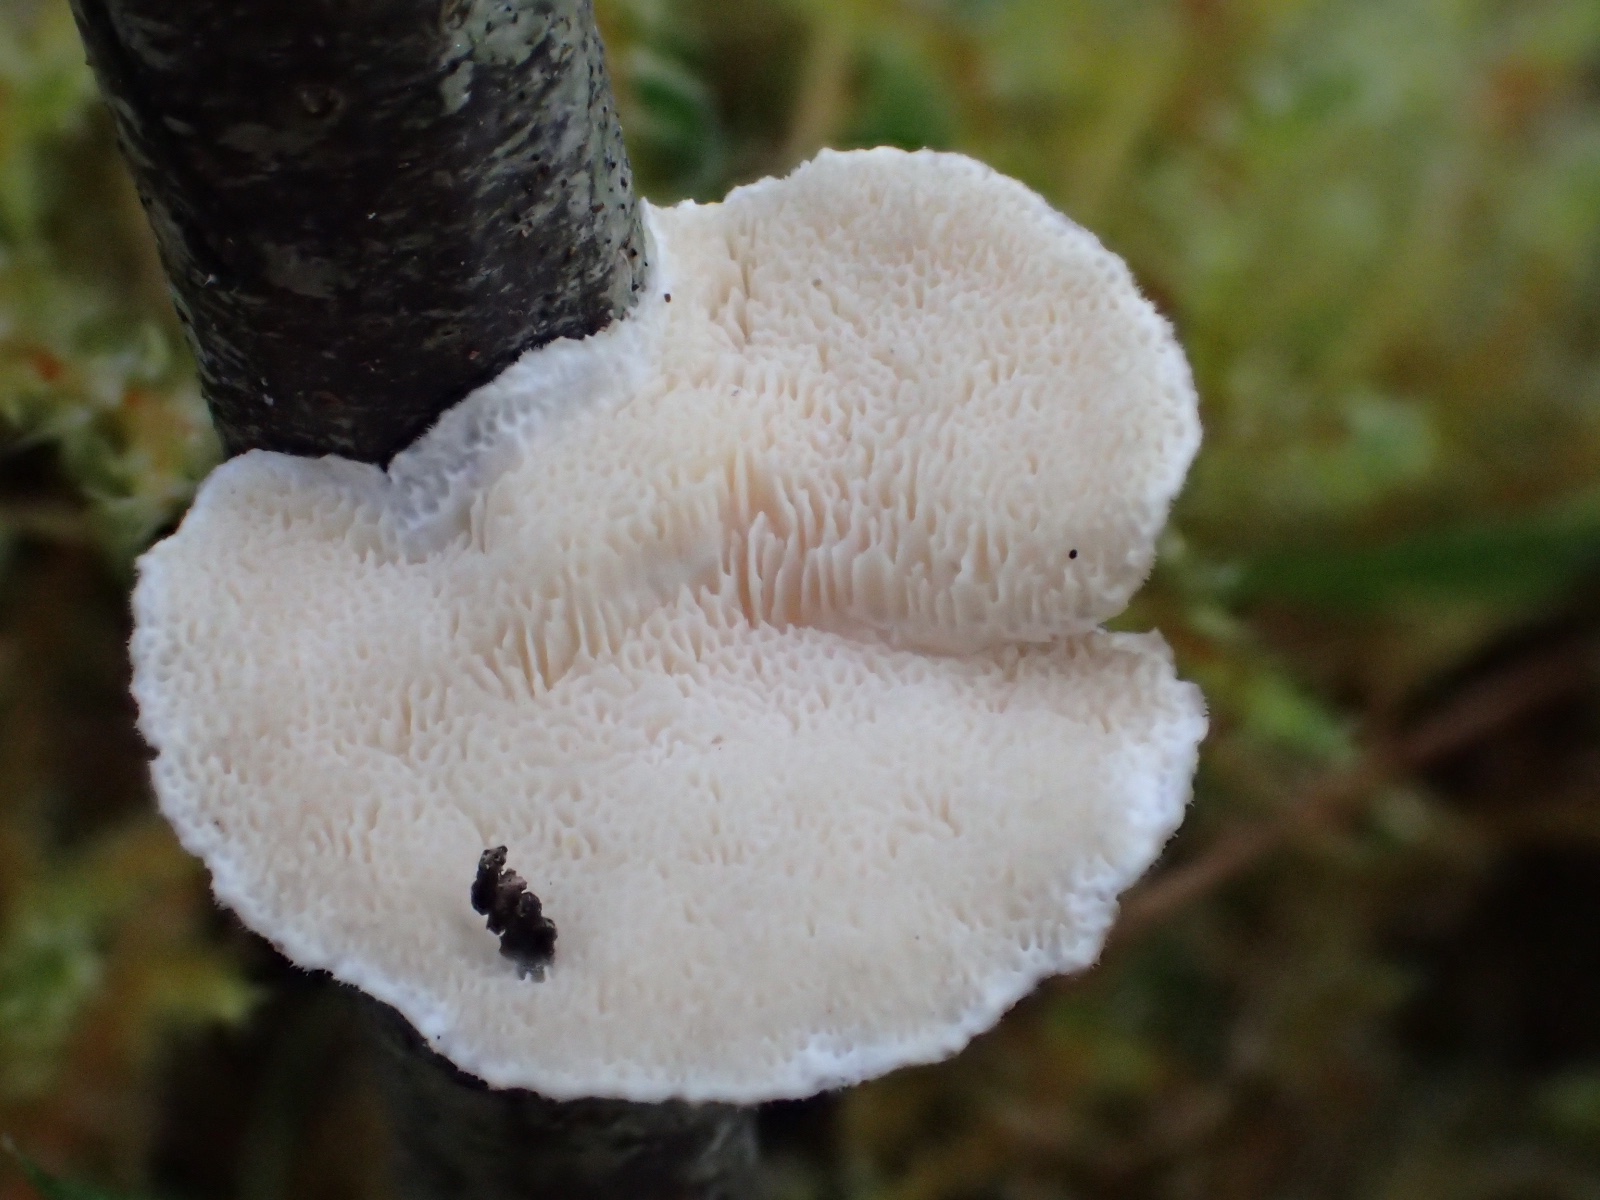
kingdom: Fungi
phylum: Basidiomycota
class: Agaricomycetes
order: Polyporales
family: Polyporaceae
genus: Trametes
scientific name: Trametes ochracea
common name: bæltet læderporesvamp
